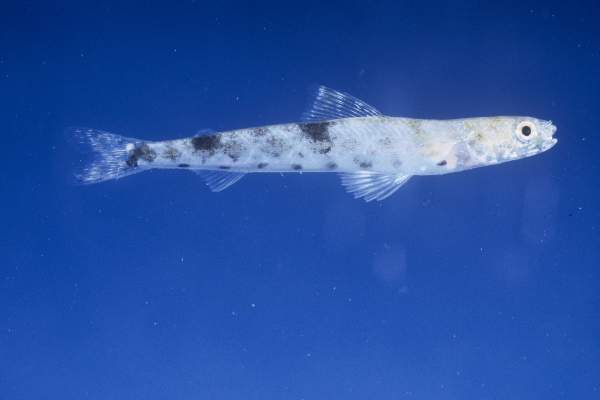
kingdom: Animalia
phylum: Chordata
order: Aulopiformes
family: Synodontidae
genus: Saurida
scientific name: Saurida gracilis
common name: Slender lizardfish
